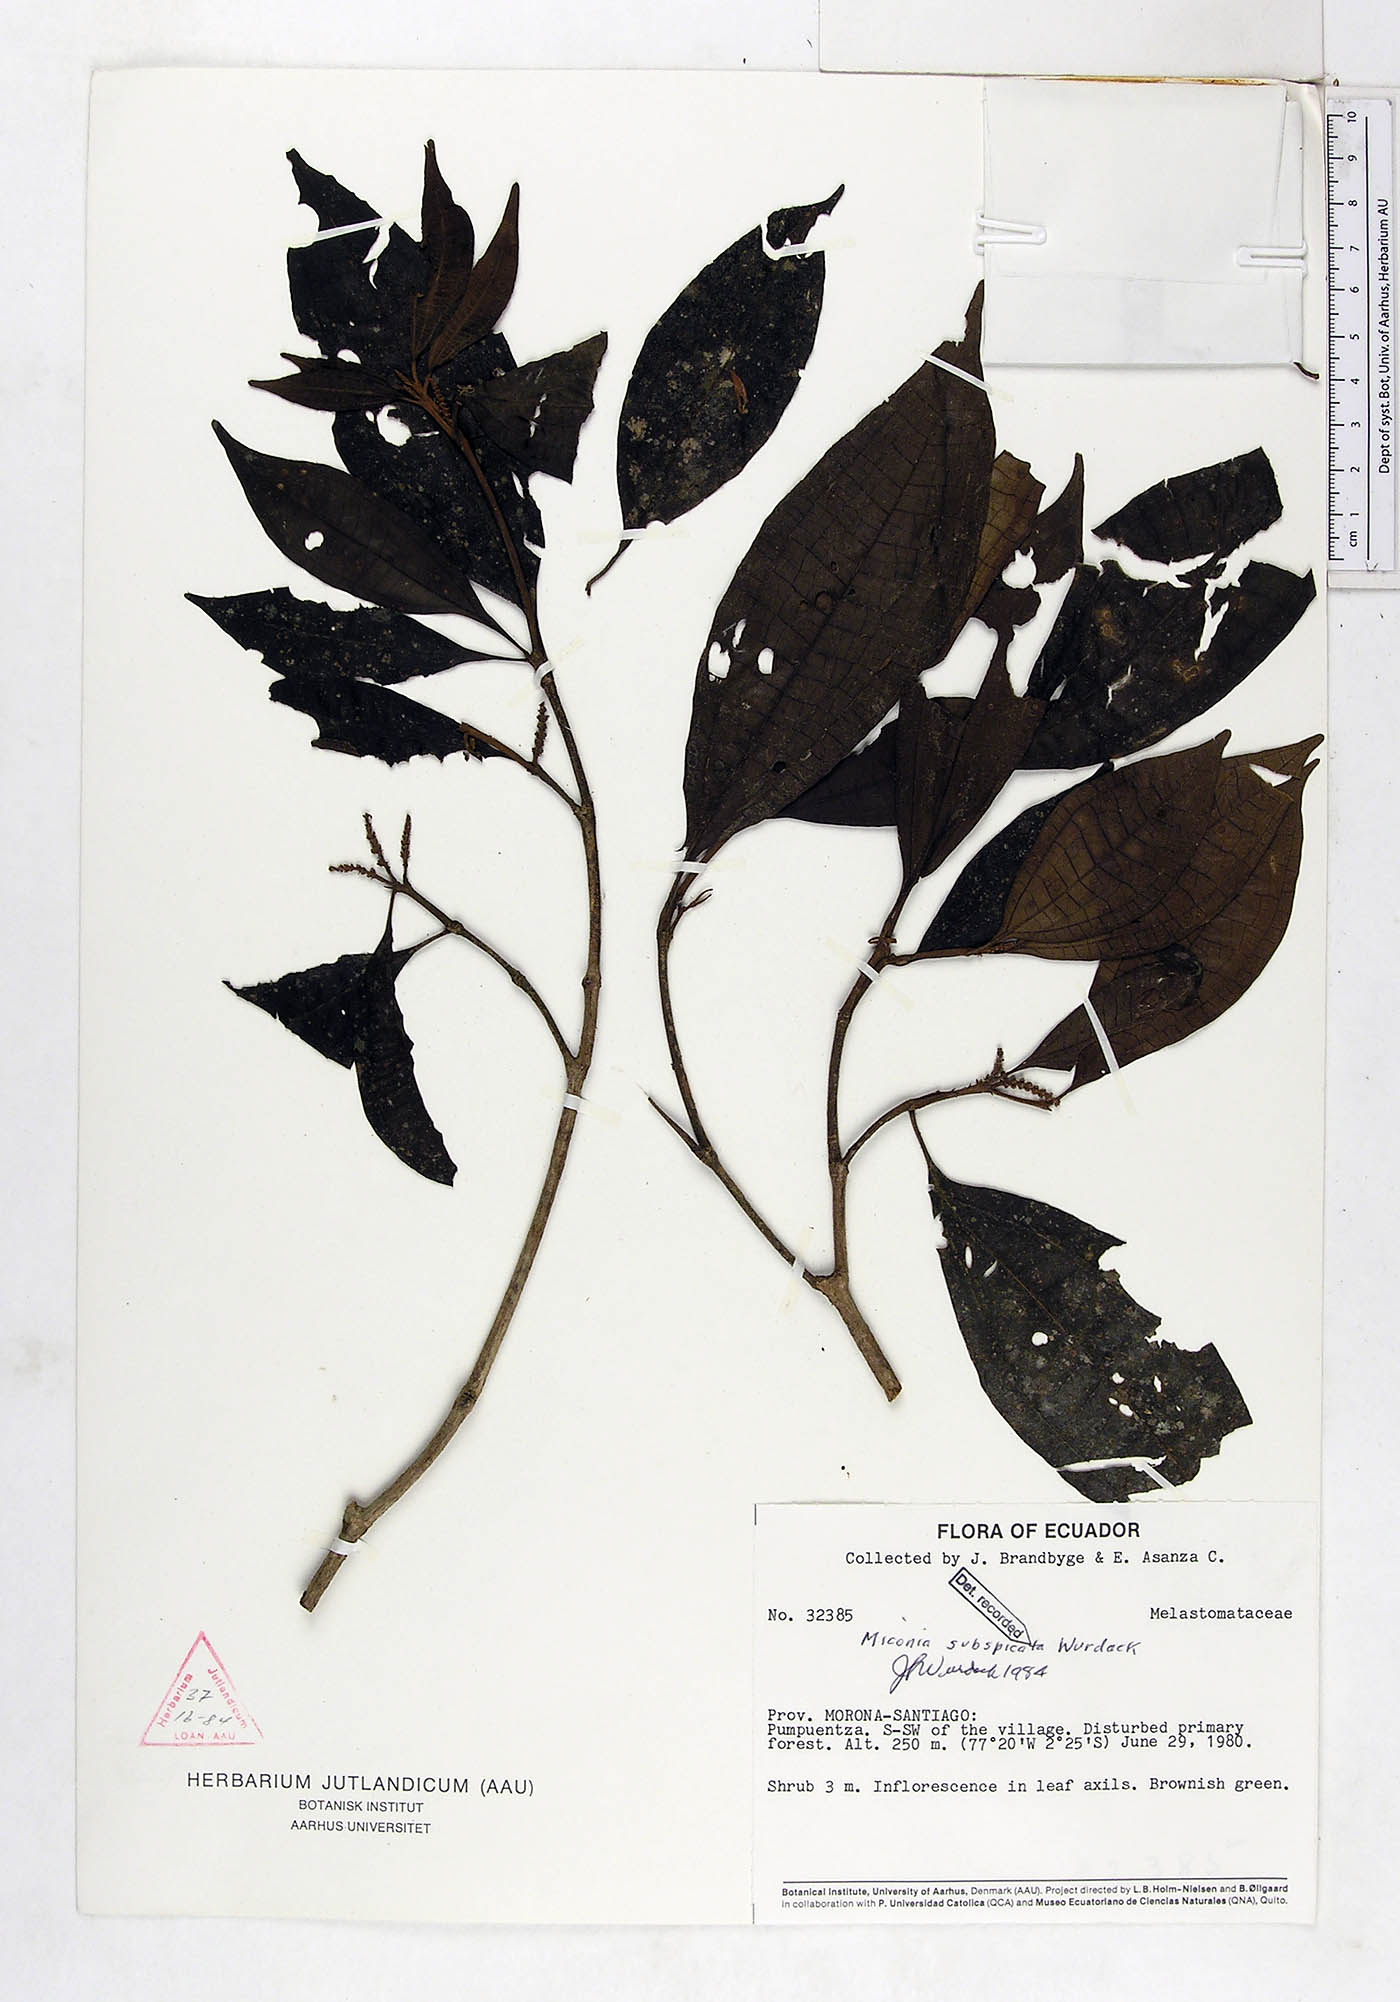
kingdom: Plantae
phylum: Tracheophyta
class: Magnoliopsida
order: Myrtales
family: Melastomataceae
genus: Miconia
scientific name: Miconia subspicata
